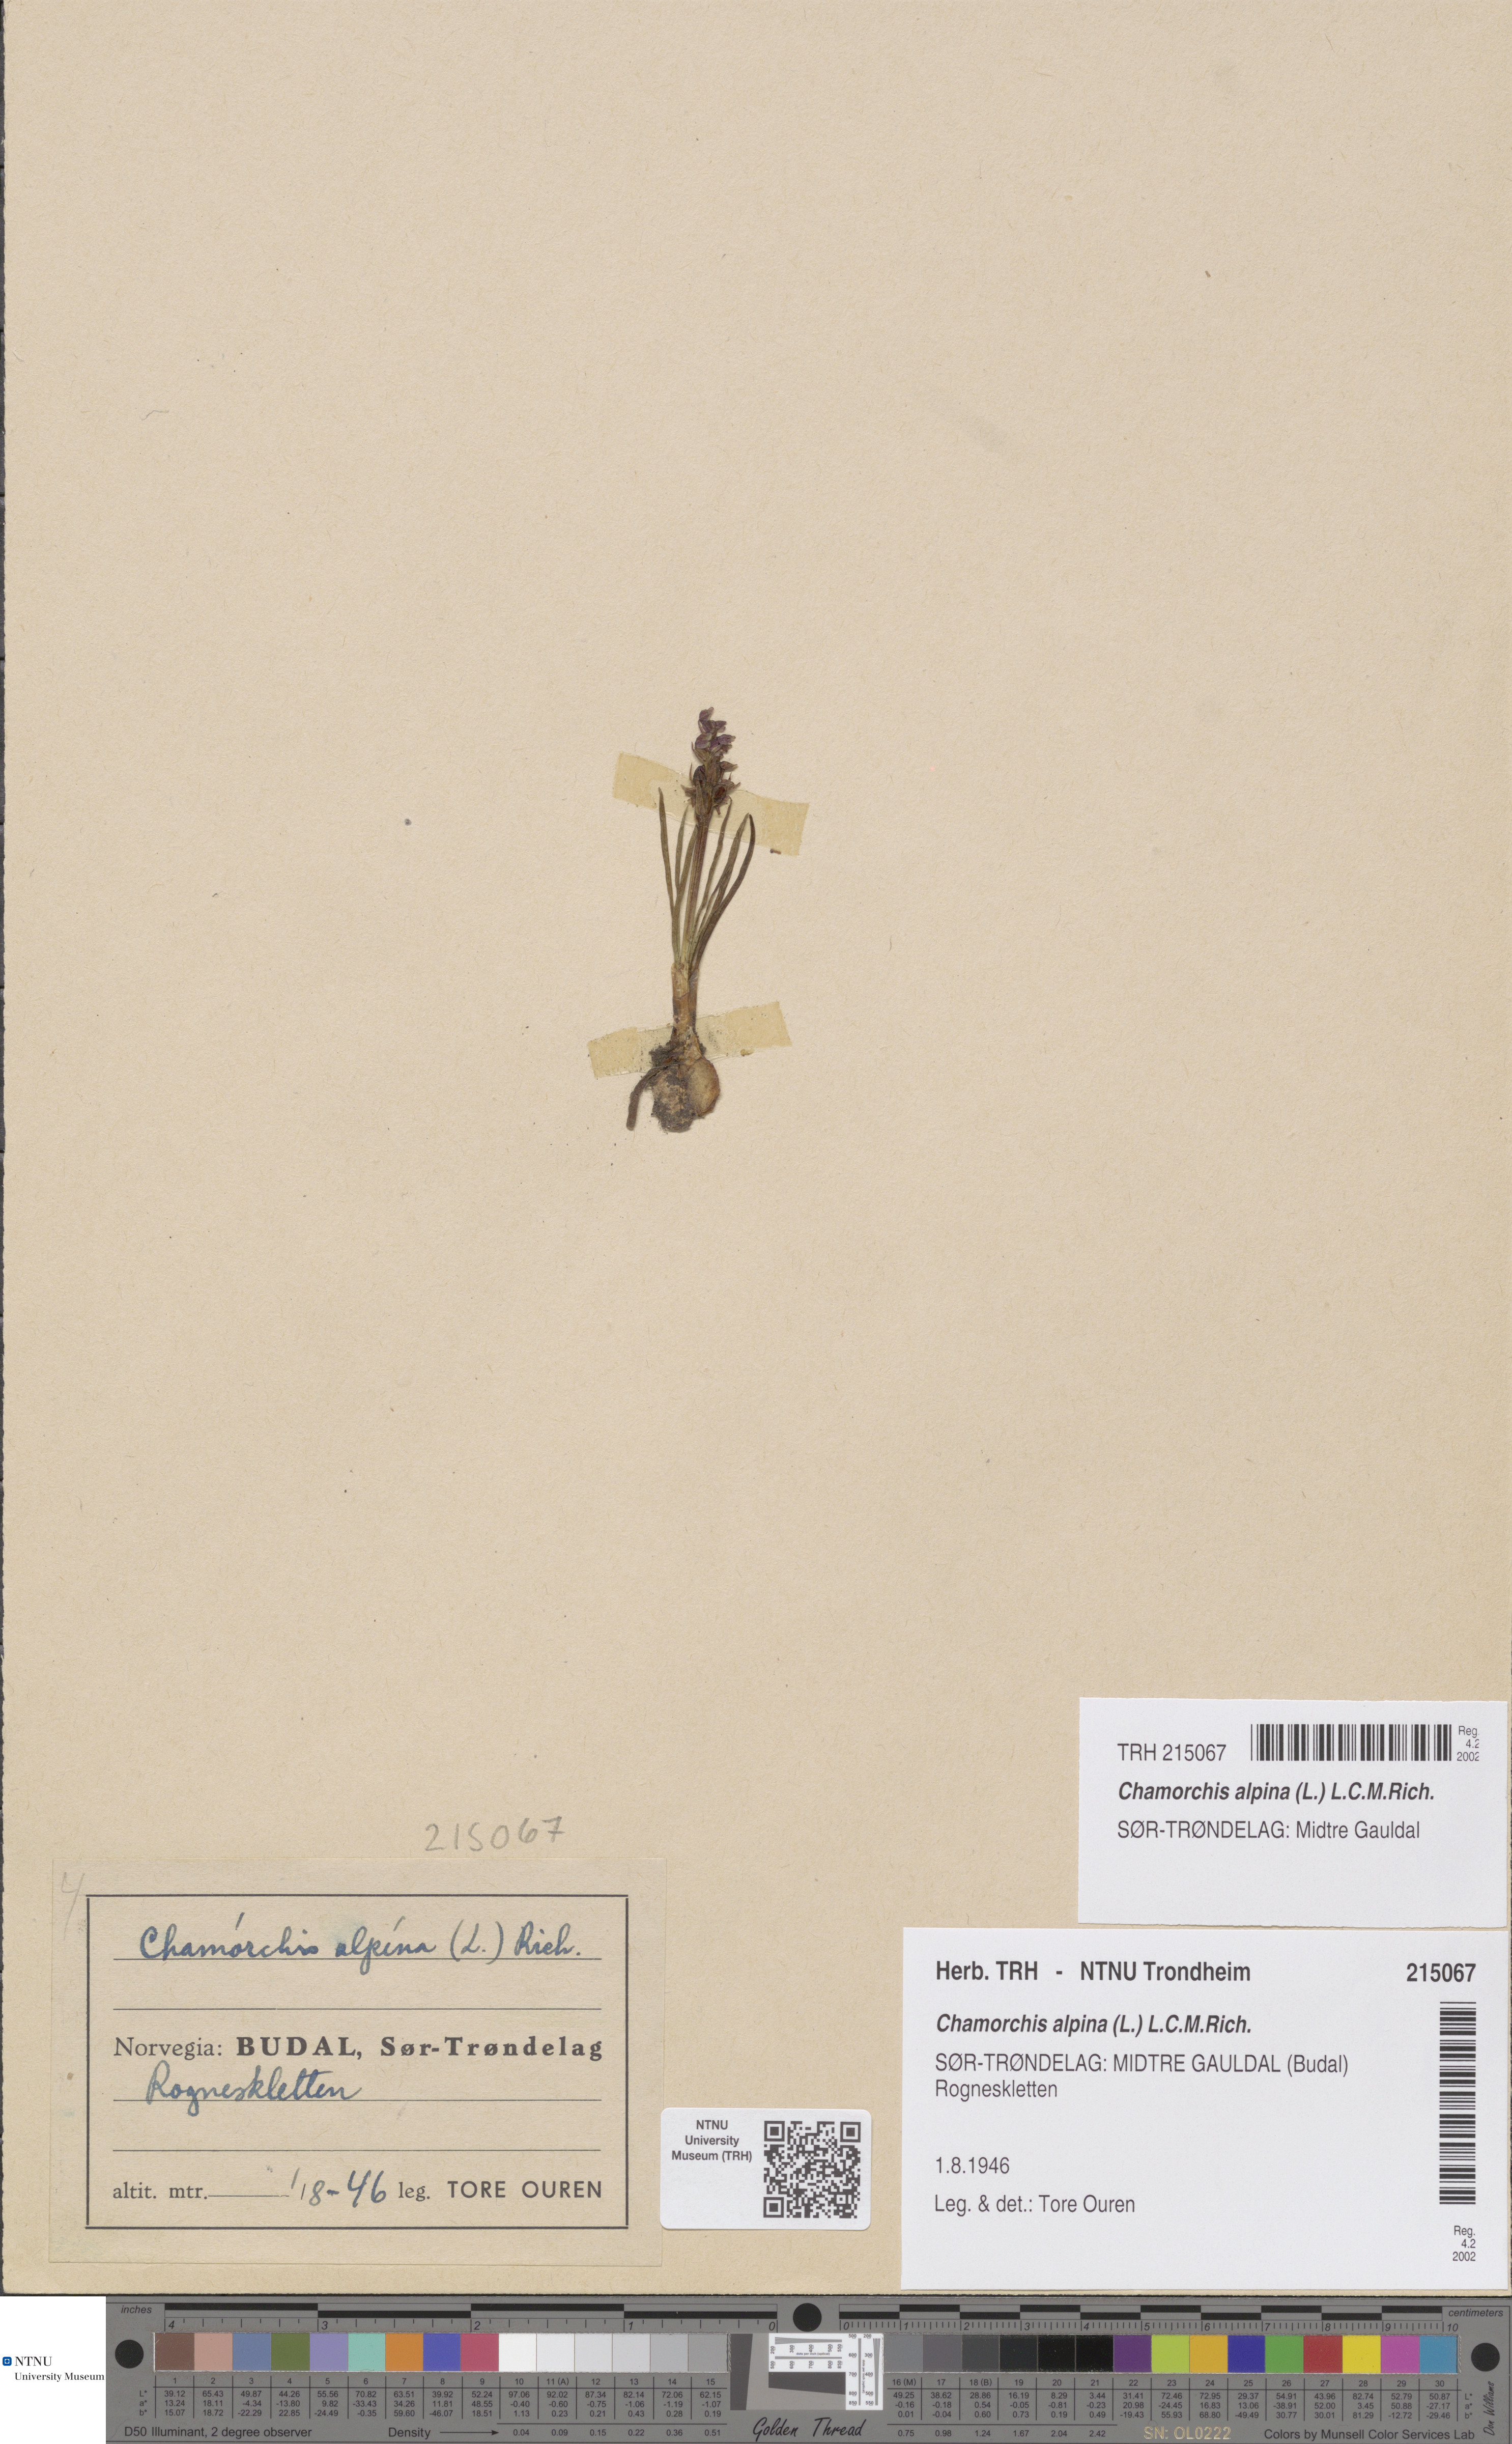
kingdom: Plantae
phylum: Tracheophyta
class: Liliopsida
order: Asparagales
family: Orchidaceae
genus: Chamorchis
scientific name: Chamorchis alpina
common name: Alpine chamorchis
